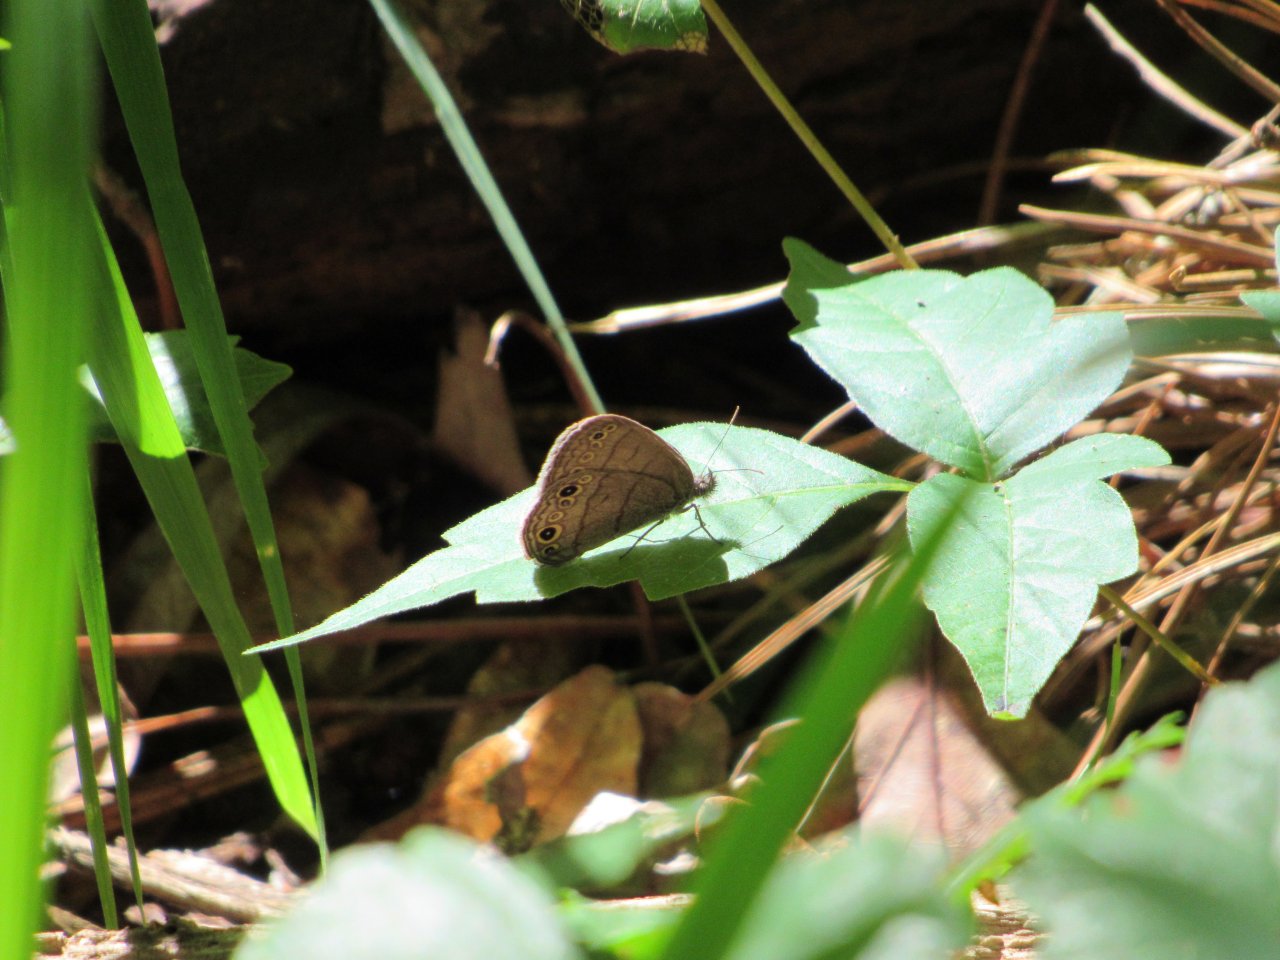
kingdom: Animalia
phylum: Arthropoda
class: Insecta
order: Lepidoptera
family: Nymphalidae
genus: Hermeuptychia
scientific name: Hermeuptychia hermes
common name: Carolina Satyr
